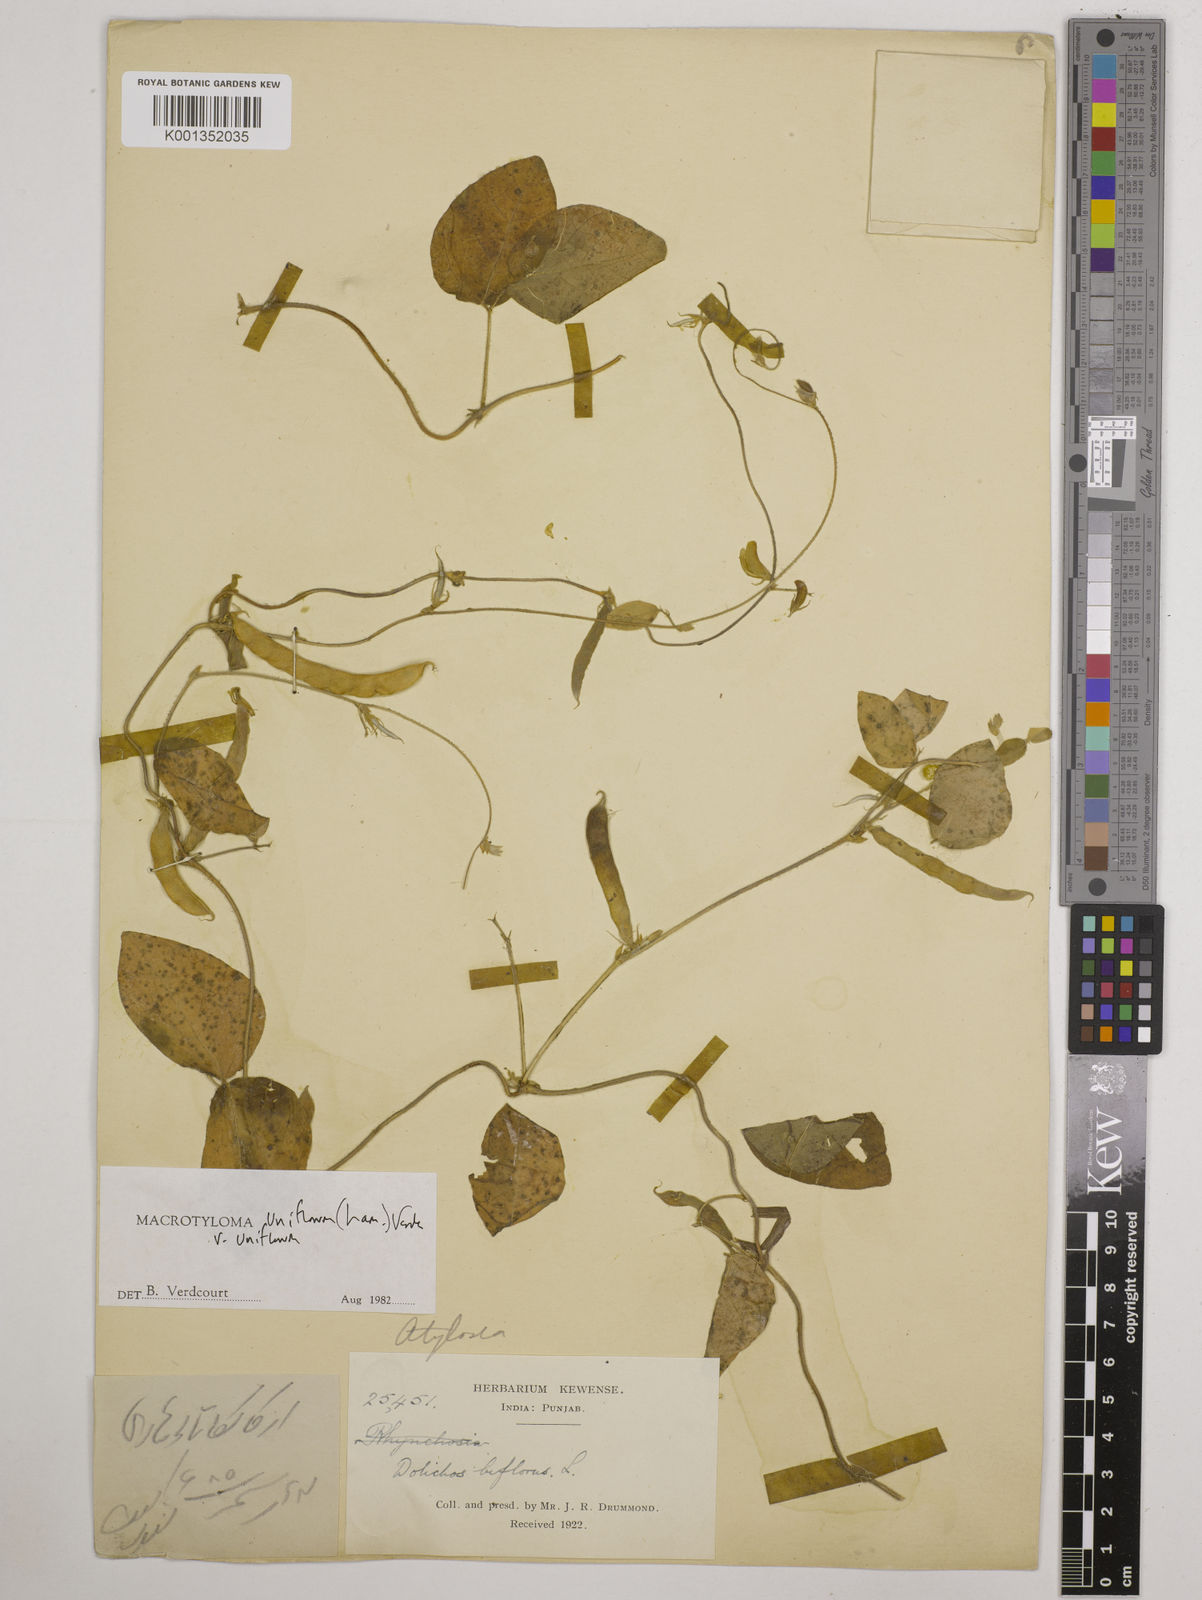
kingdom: Plantae
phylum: Tracheophyta
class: Magnoliopsida
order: Fabales
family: Fabaceae
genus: Macrotyloma
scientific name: Macrotyloma uniflorum
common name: Horse gram
